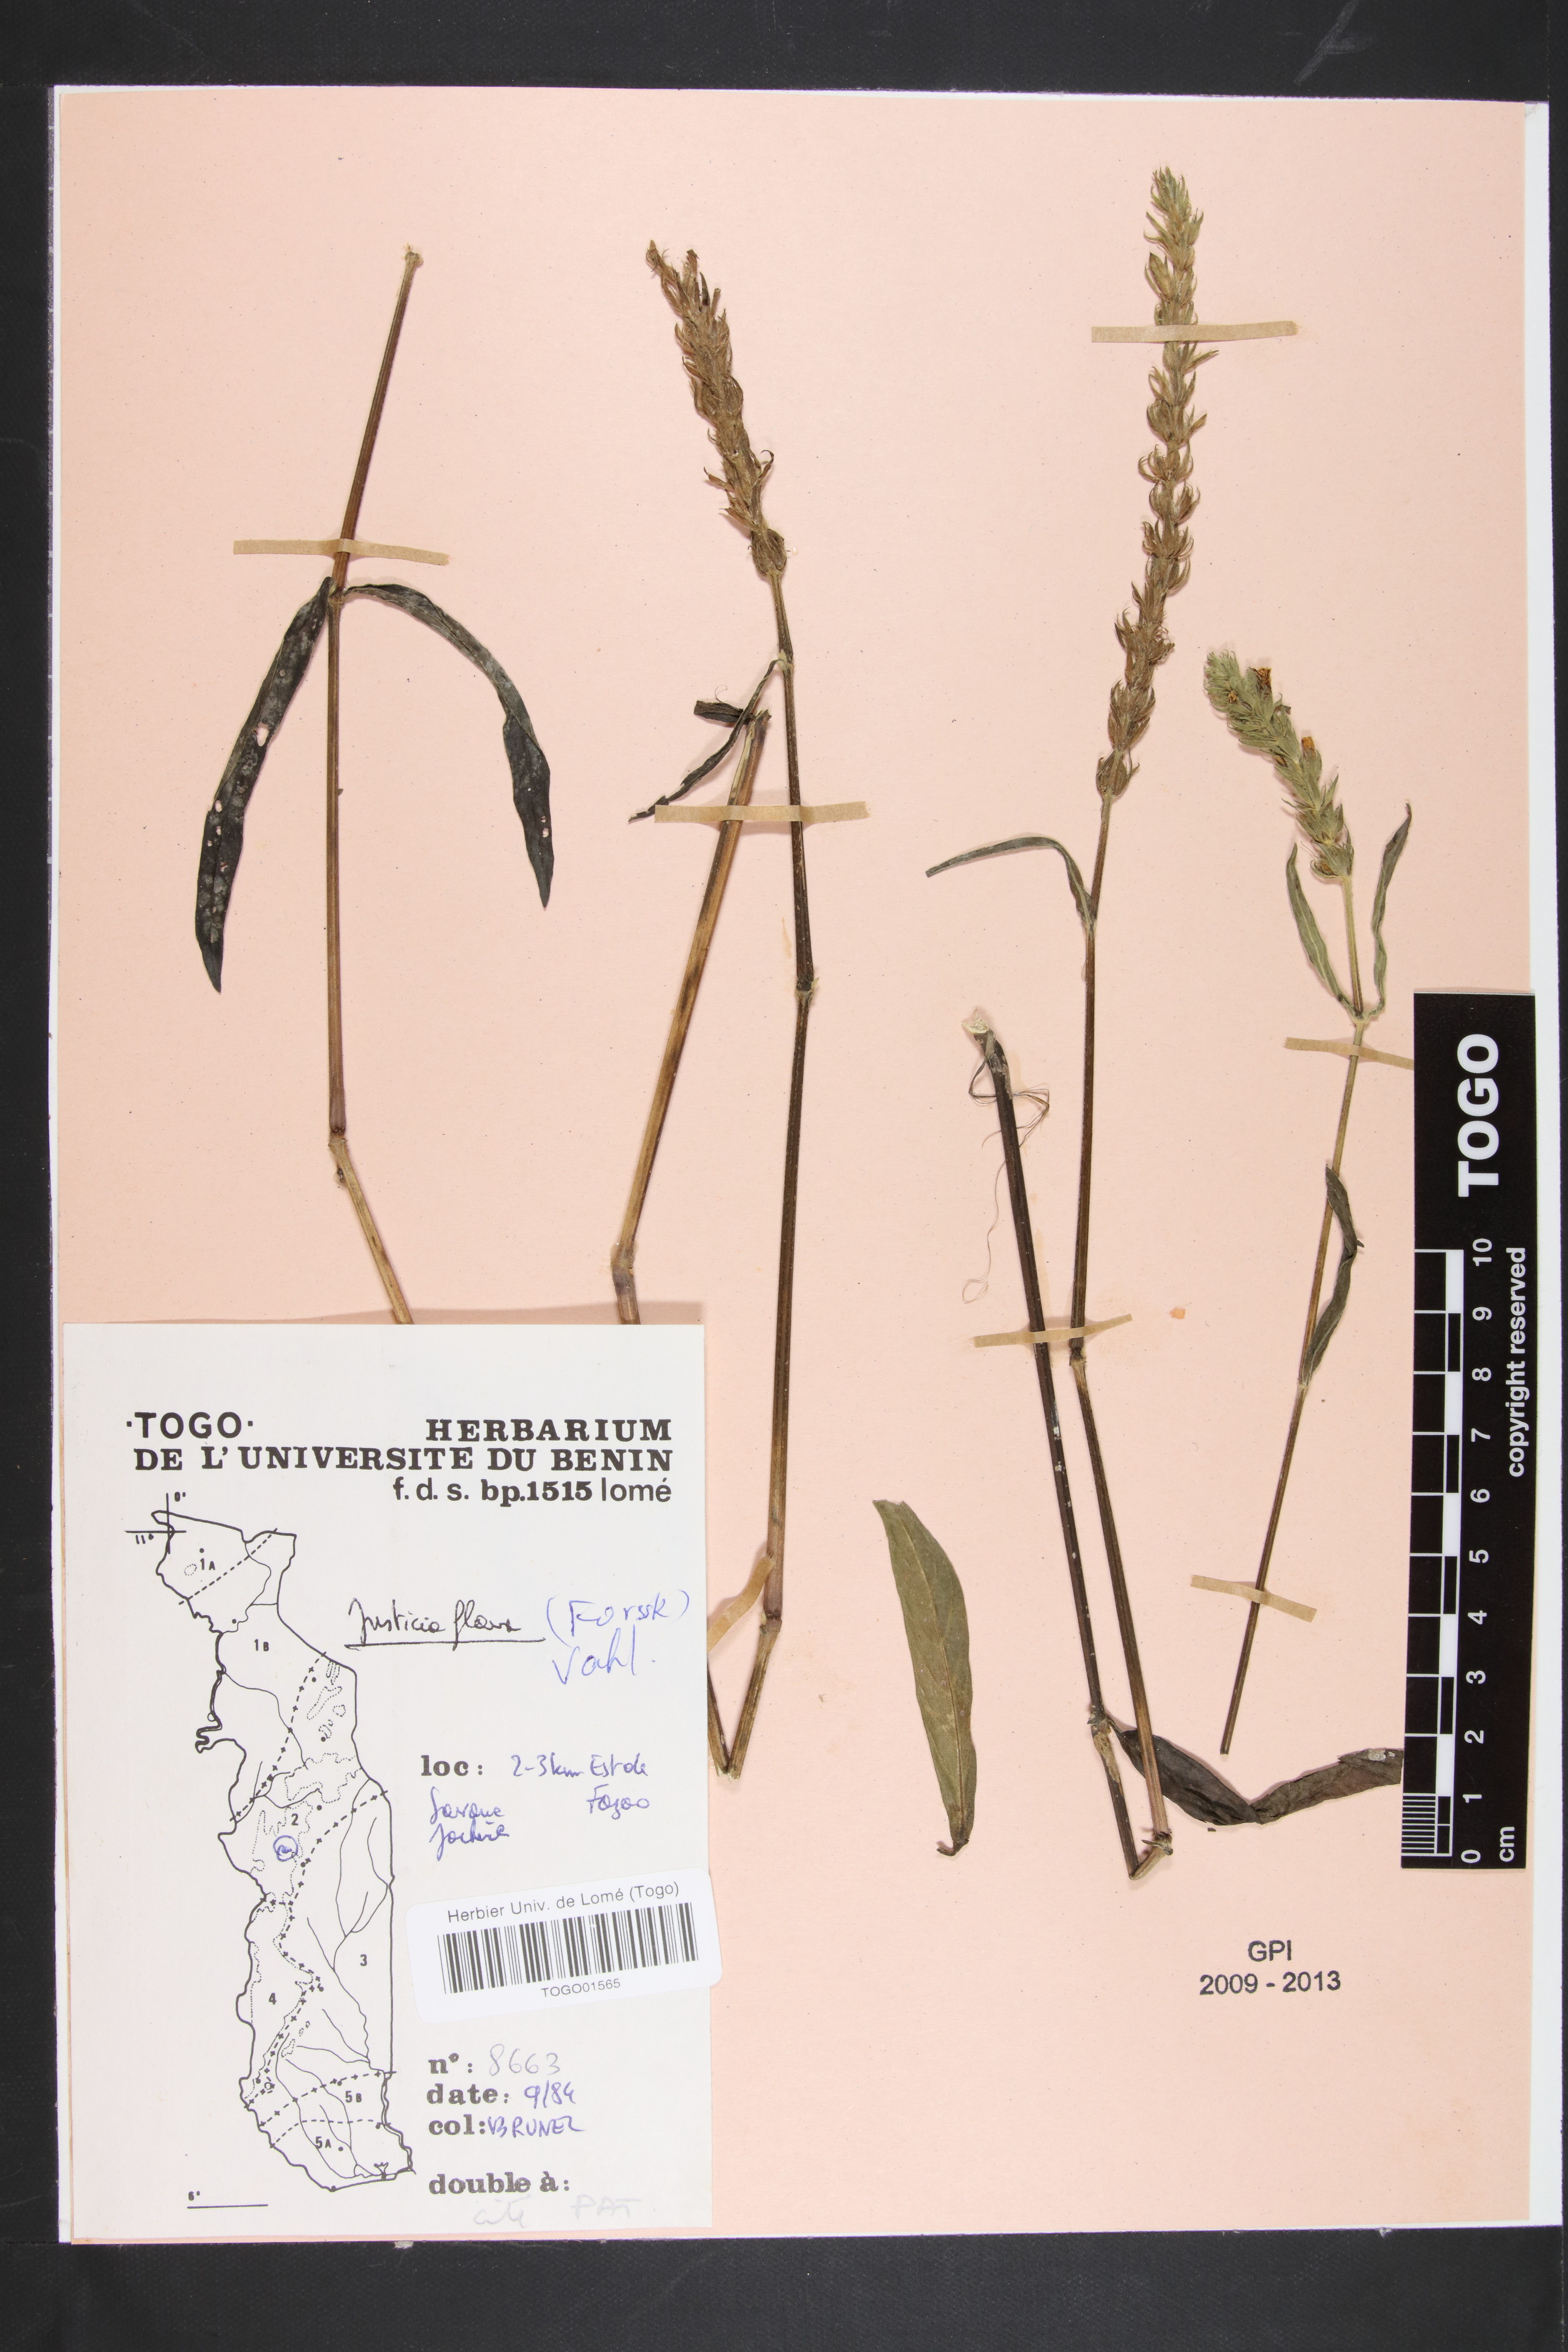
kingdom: Plantae
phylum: Tracheophyta
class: Magnoliopsida
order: Lamiales
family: Acanthaceae
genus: Justicia
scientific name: Justicia flava
